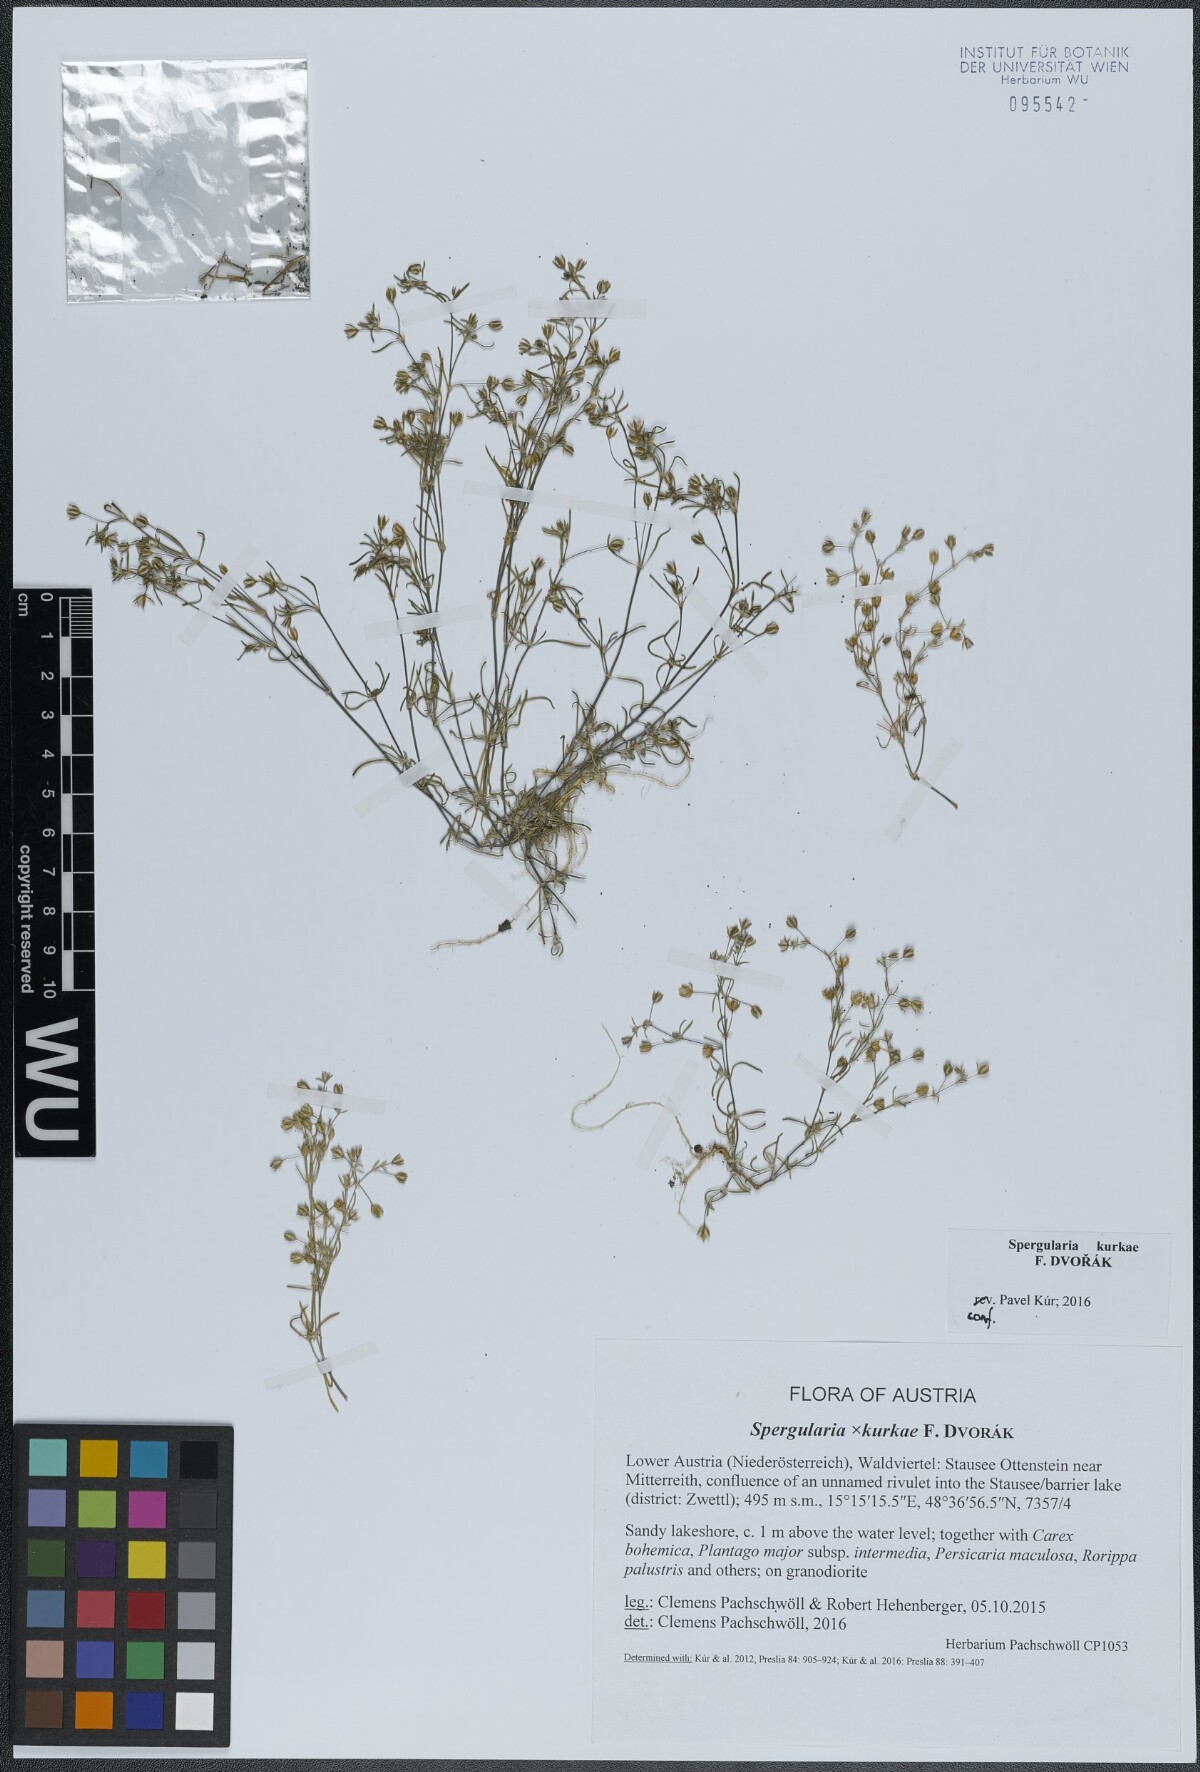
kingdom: Plantae
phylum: Tracheophyta
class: Magnoliopsida
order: Caryophyllales
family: Caryophyllaceae
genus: Spergularia
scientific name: Spergularia kurkae
